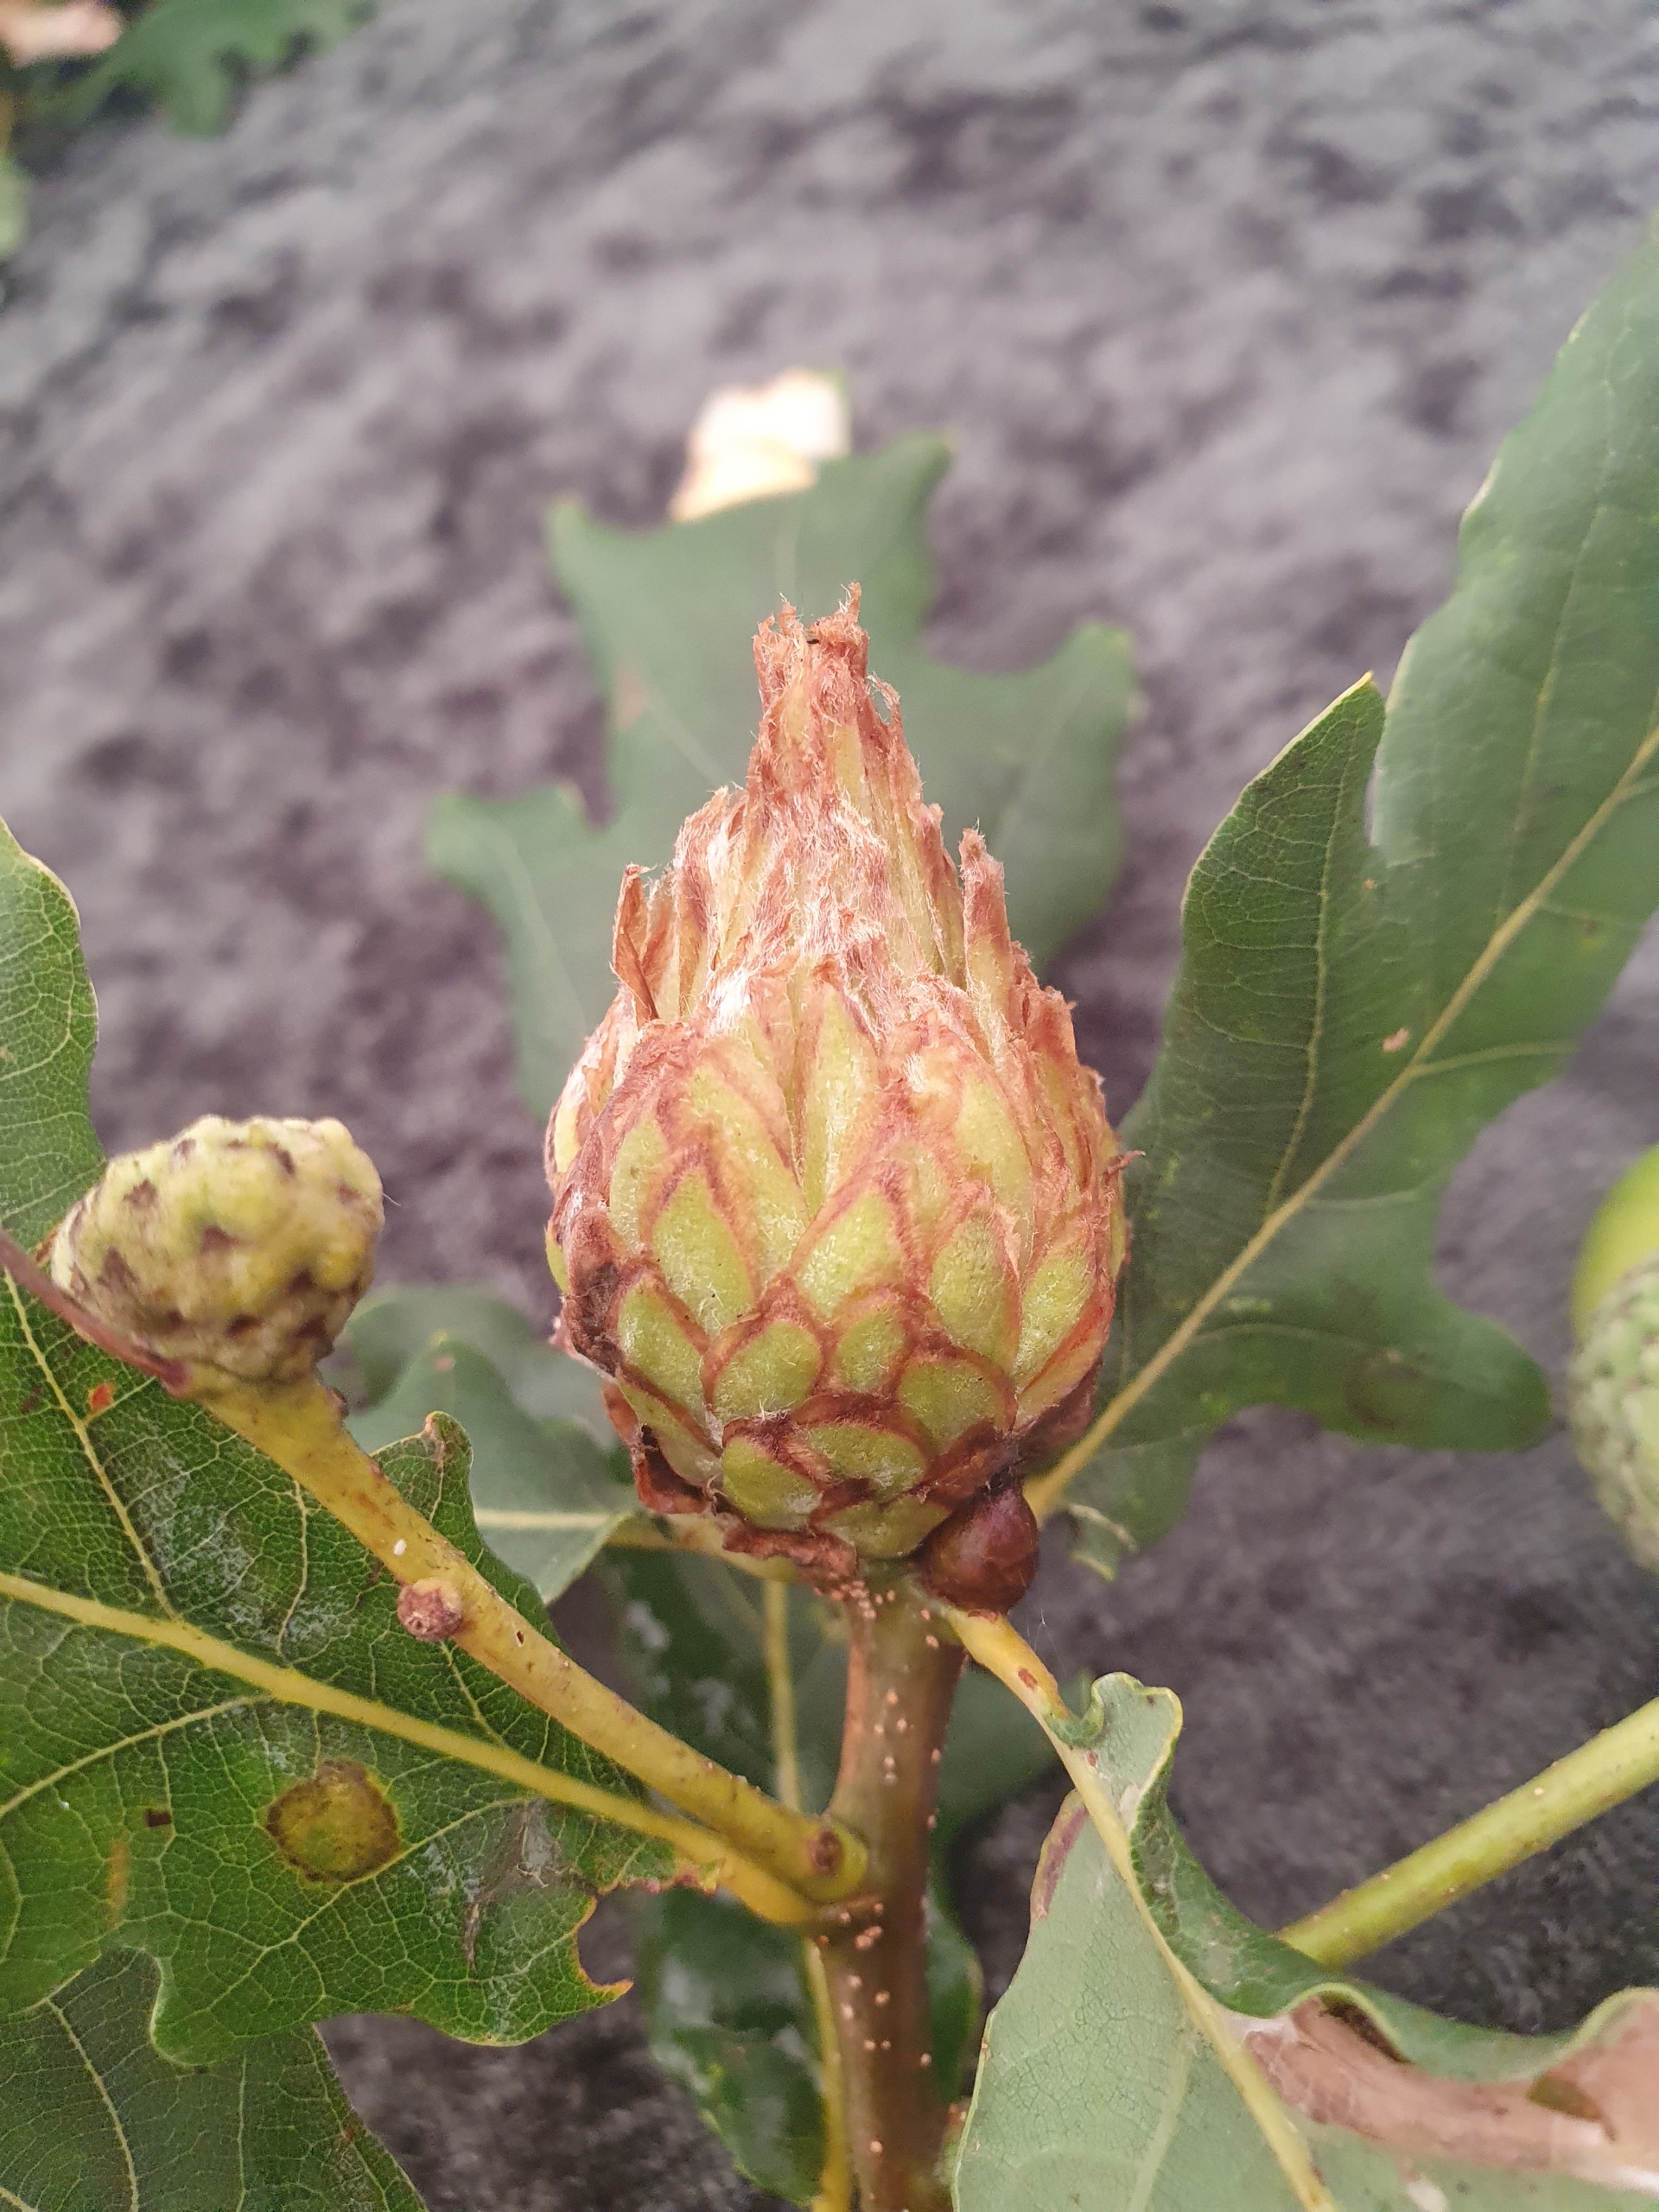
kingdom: Animalia
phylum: Arthropoda
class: Insecta
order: Hymenoptera
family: Cynipidae
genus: Andricus
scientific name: Andricus foecundatrix
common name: Artiskokgalhveps
